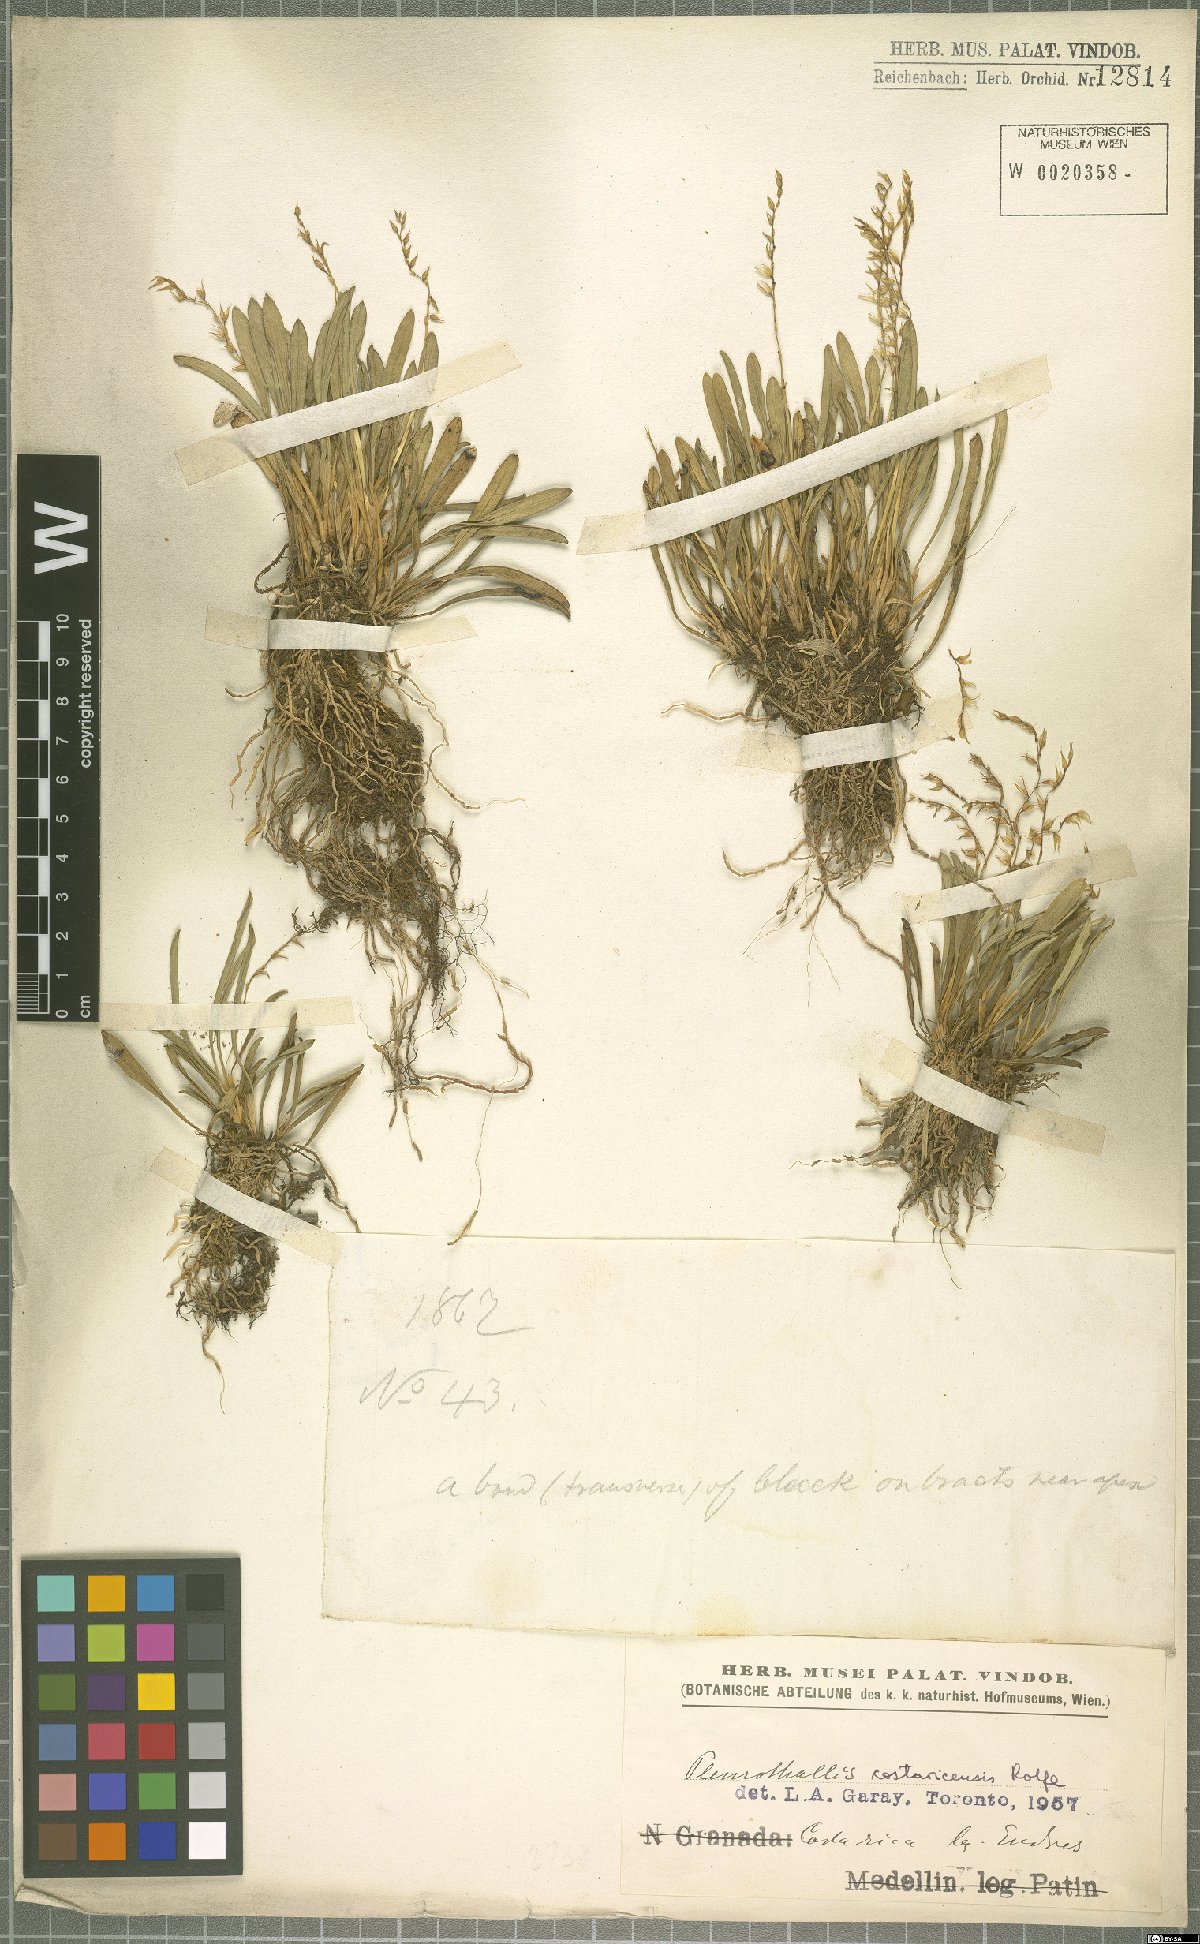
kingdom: Plantae
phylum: Tracheophyta
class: Liliopsida
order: Asparagales
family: Orchidaceae
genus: Specklinia
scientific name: Specklinia costaricensis
